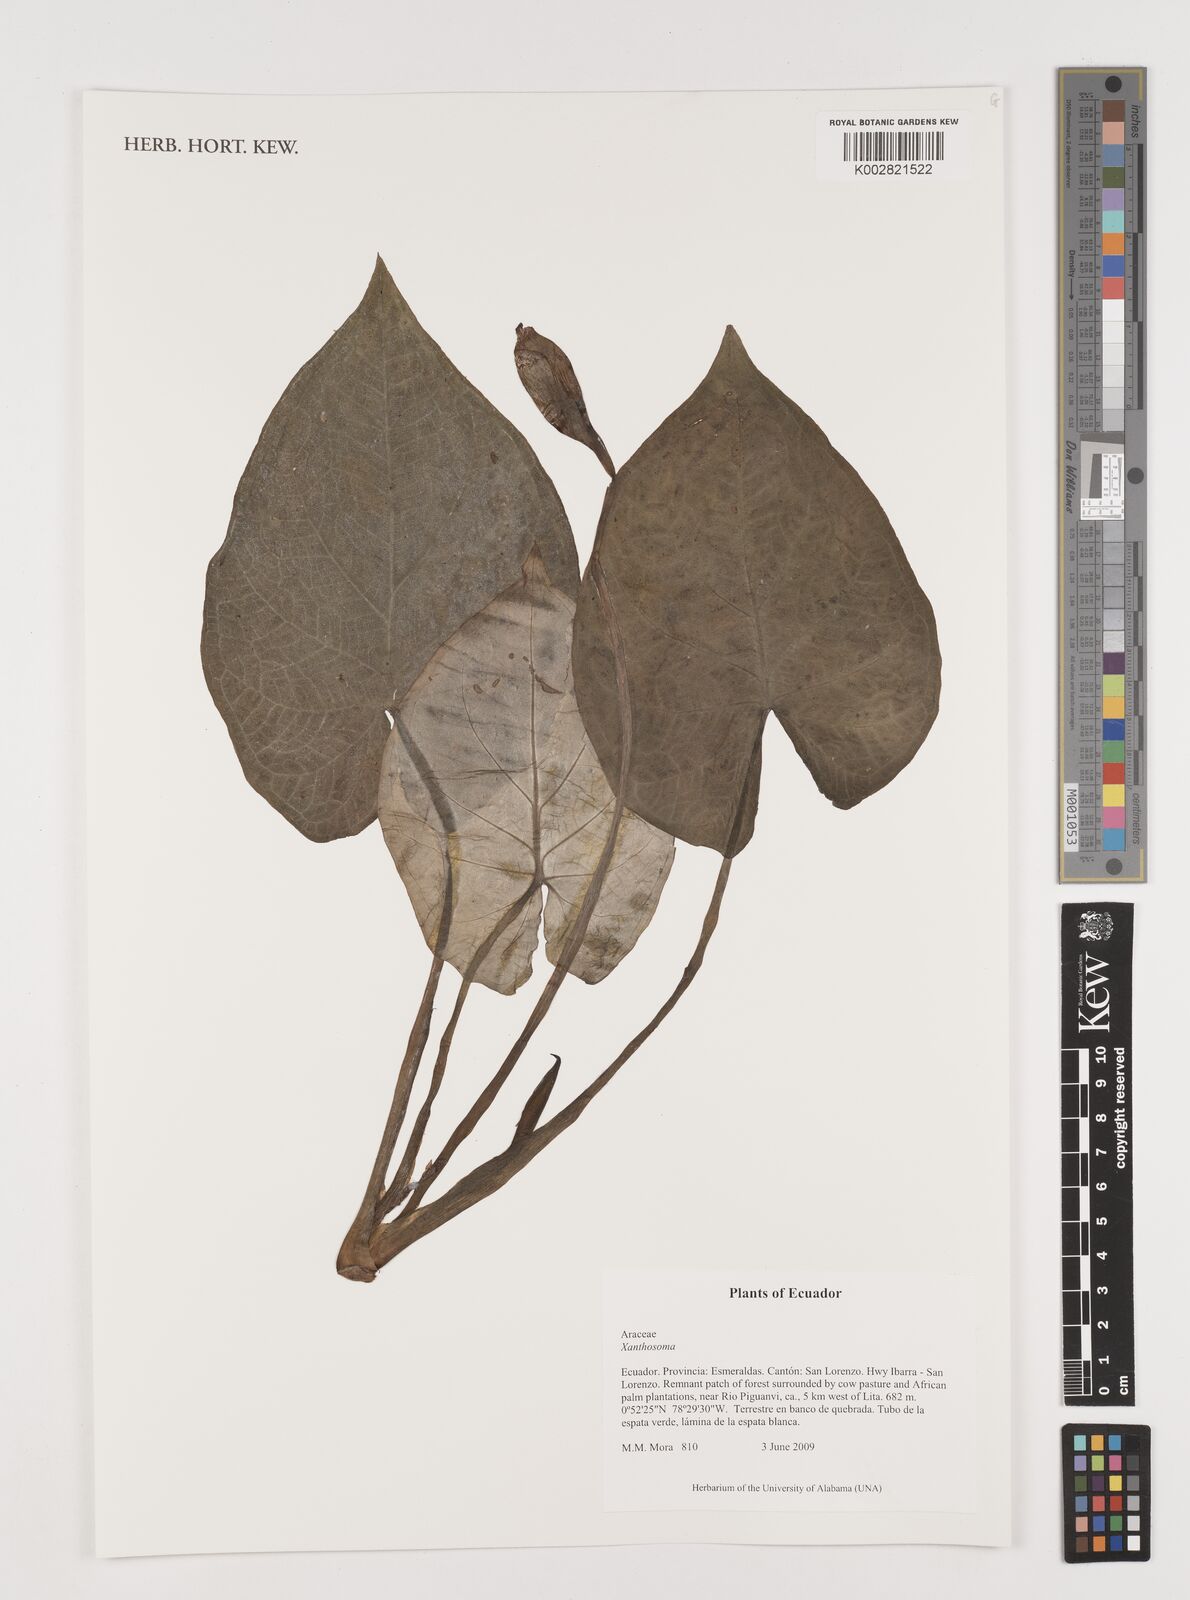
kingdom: Plantae
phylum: Tracheophyta
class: Liliopsida
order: Alismatales
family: Araceae
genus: Xanthosoma
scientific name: Xanthosoma
